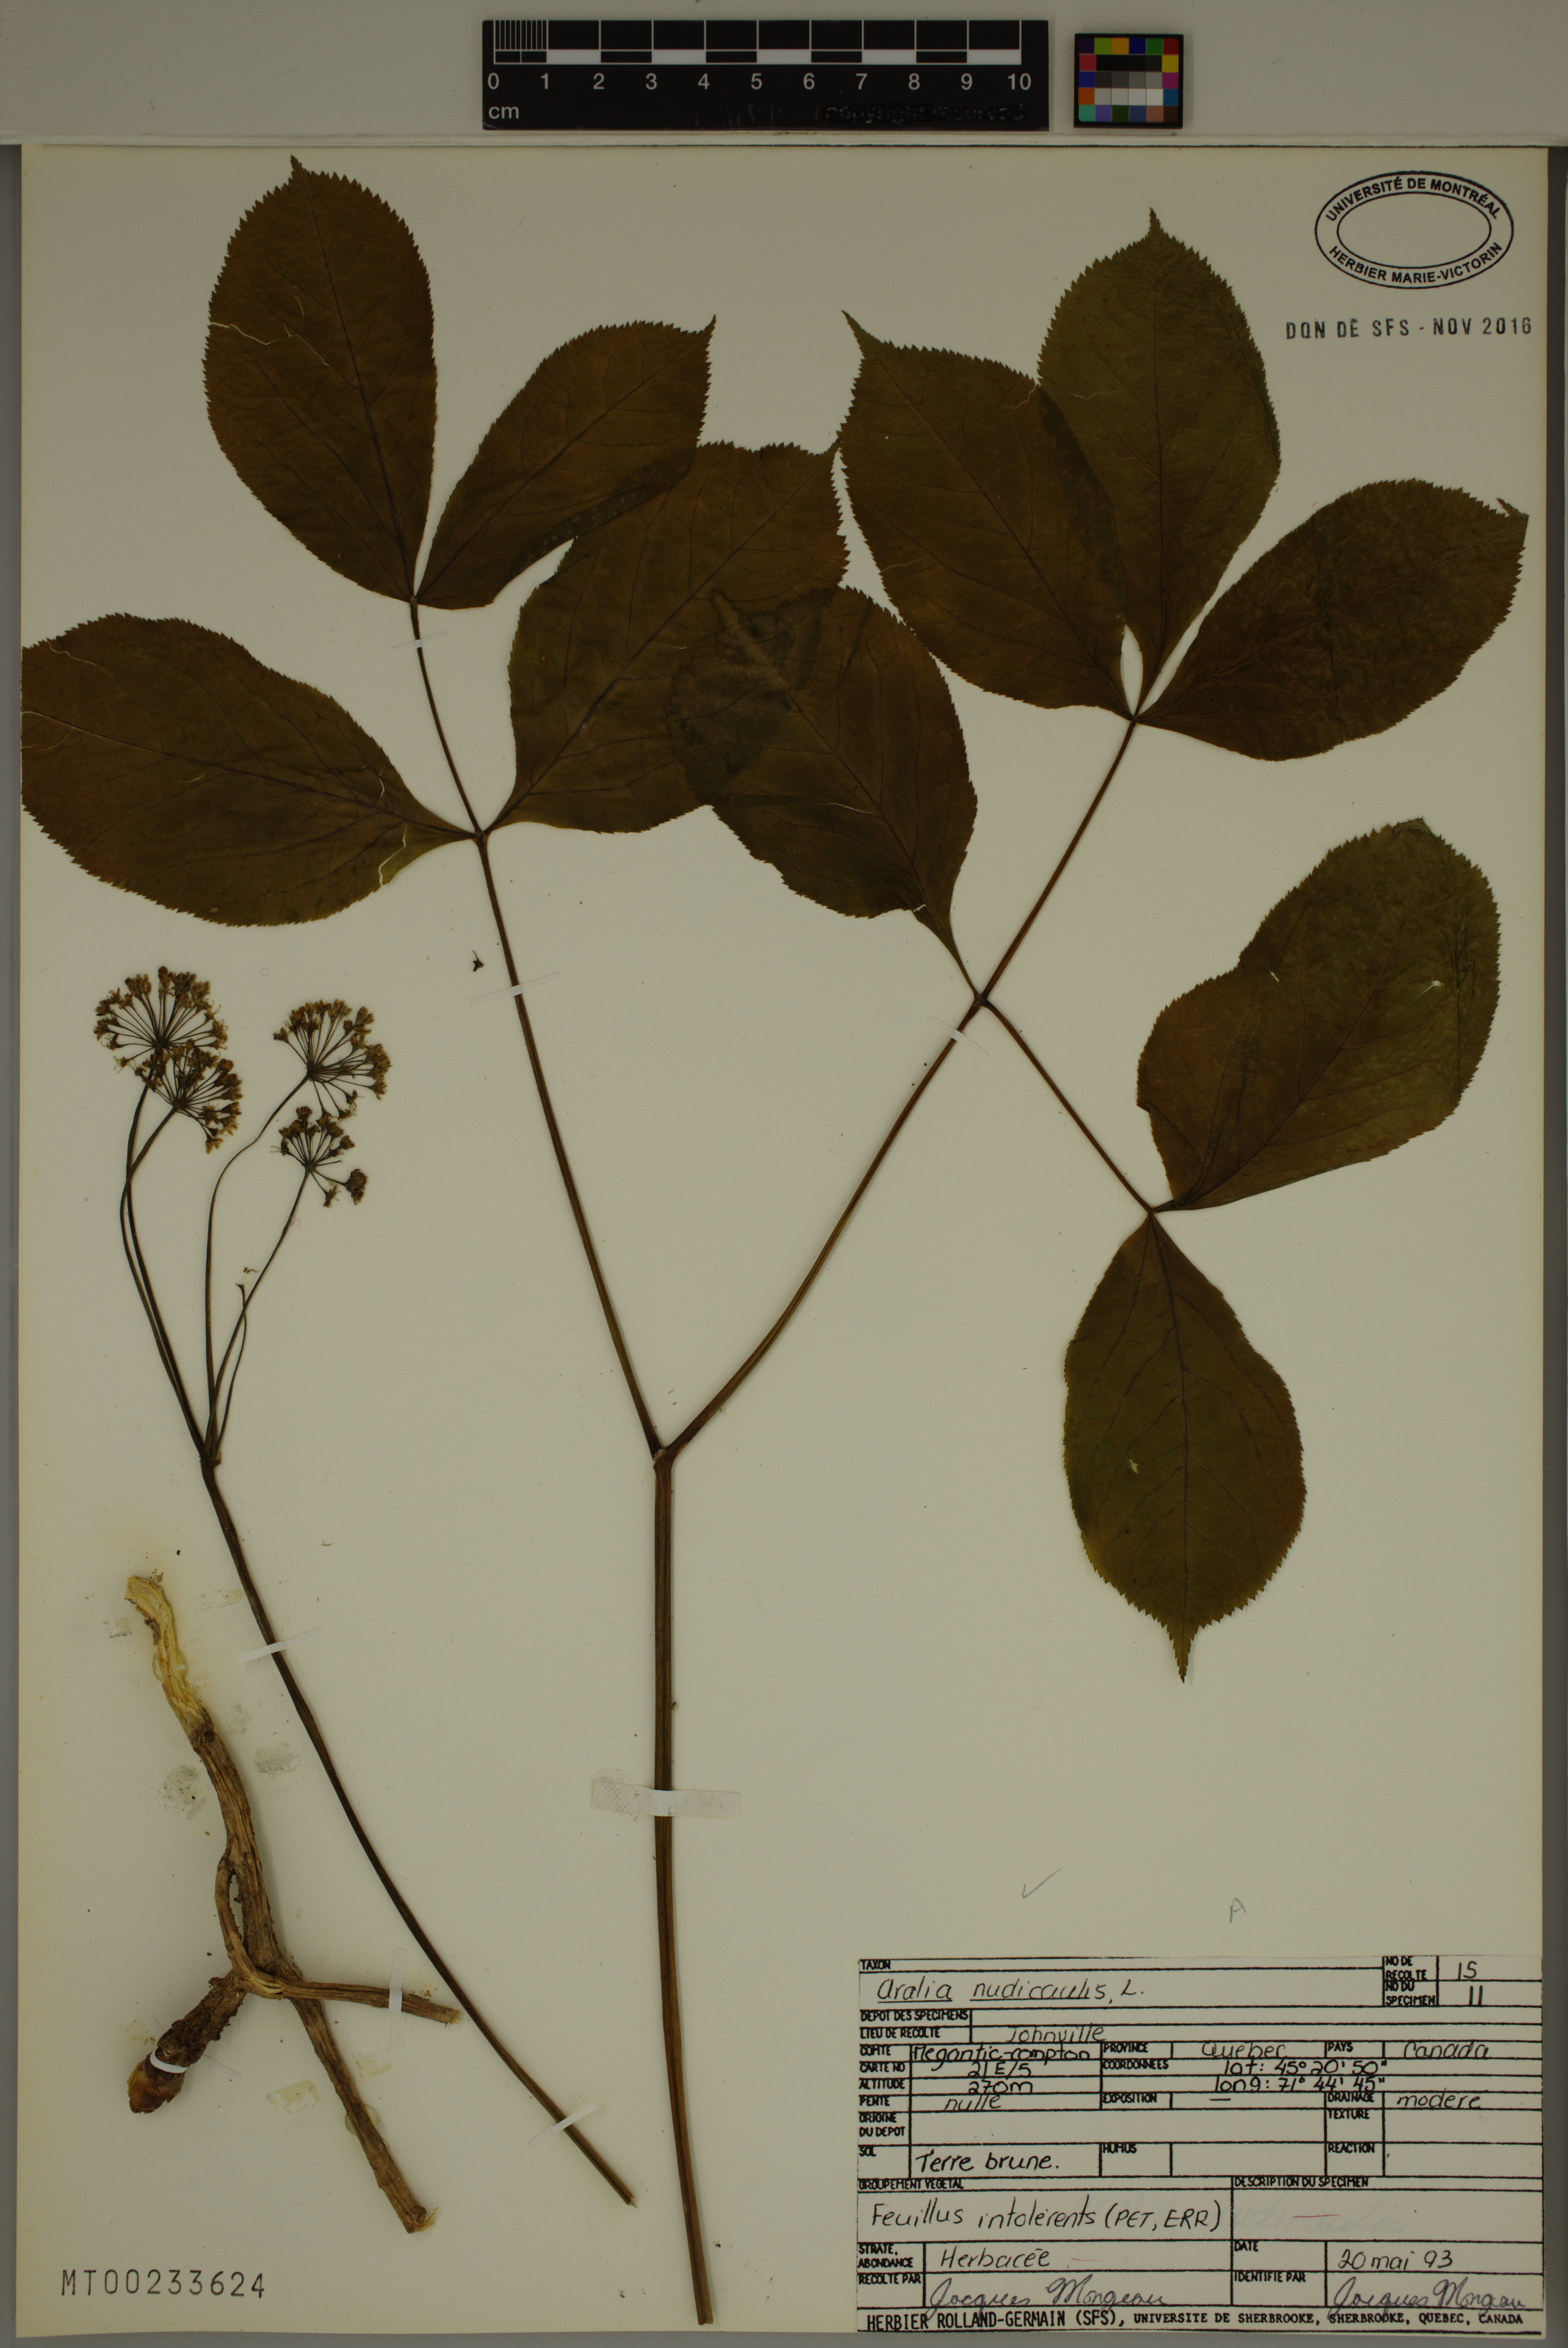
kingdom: Plantae
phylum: Tracheophyta
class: Magnoliopsida
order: Apiales
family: Araliaceae
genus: Aralia
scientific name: Aralia nudicaulis
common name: Wild sarsaparilla
